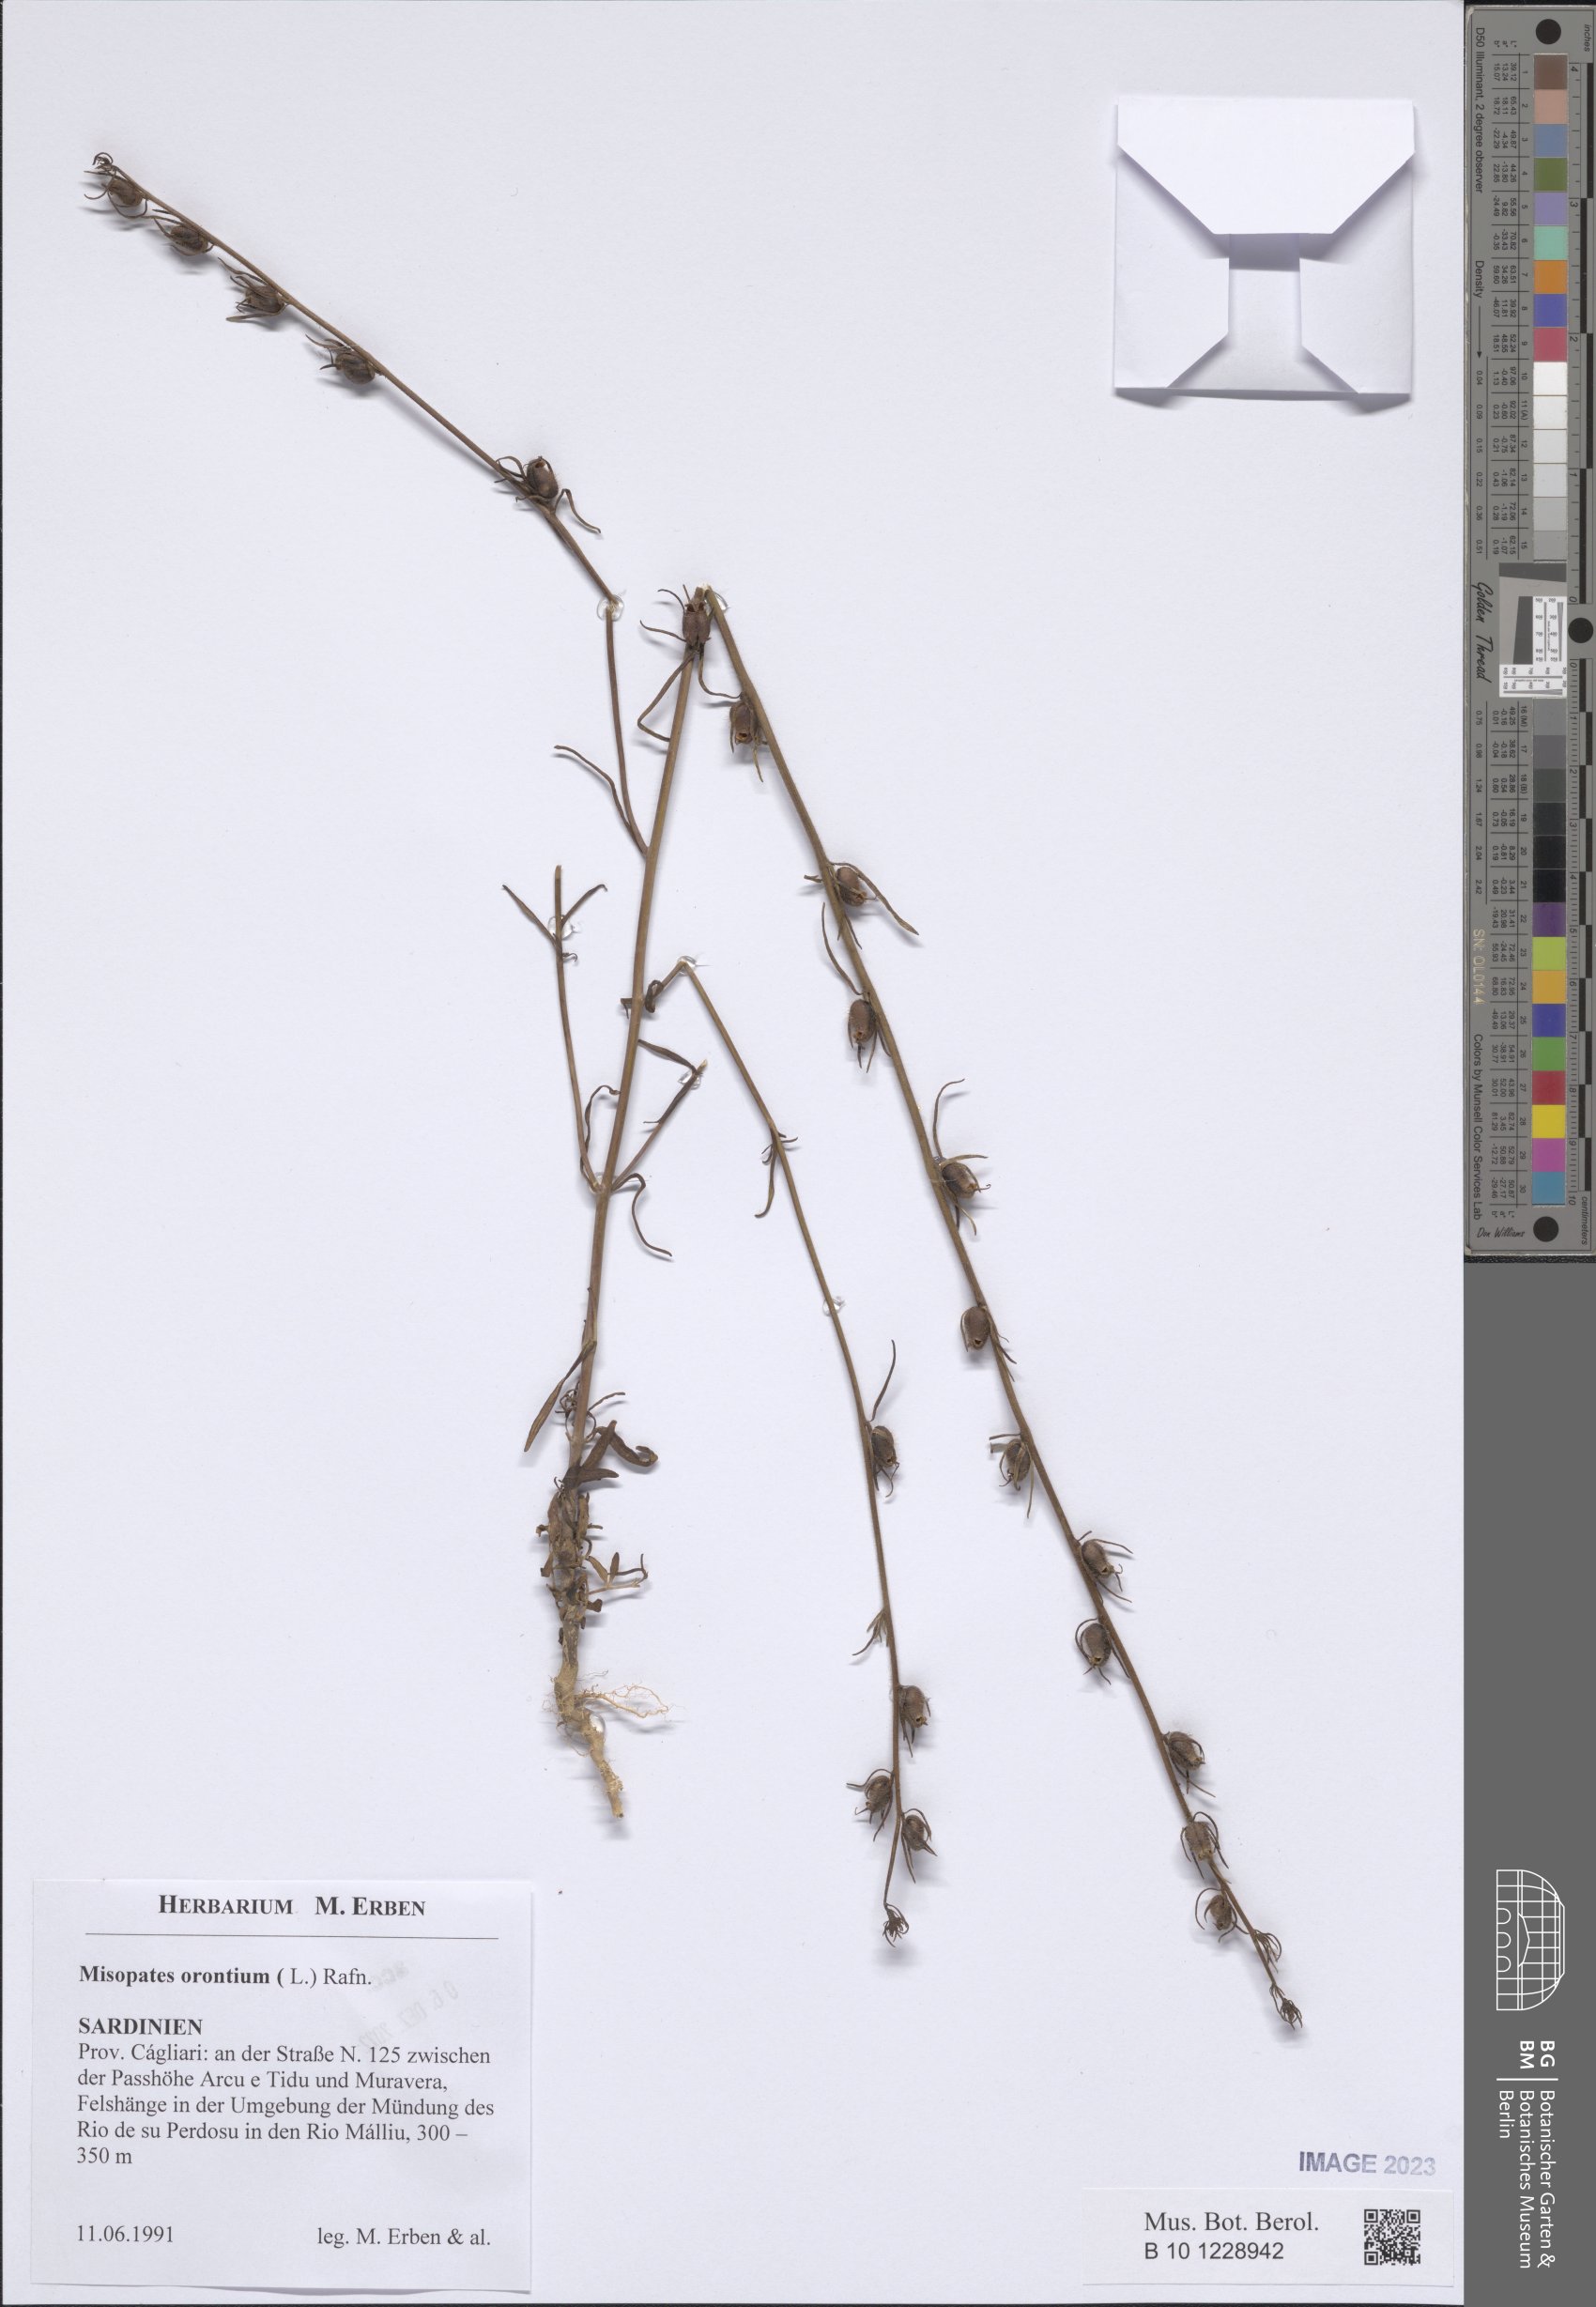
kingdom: Plantae
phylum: Tracheophyta
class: Magnoliopsida
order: Lamiales
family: Plantaginaceae
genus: Misopates
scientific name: Misopates orontium
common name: Weasel's-snout
